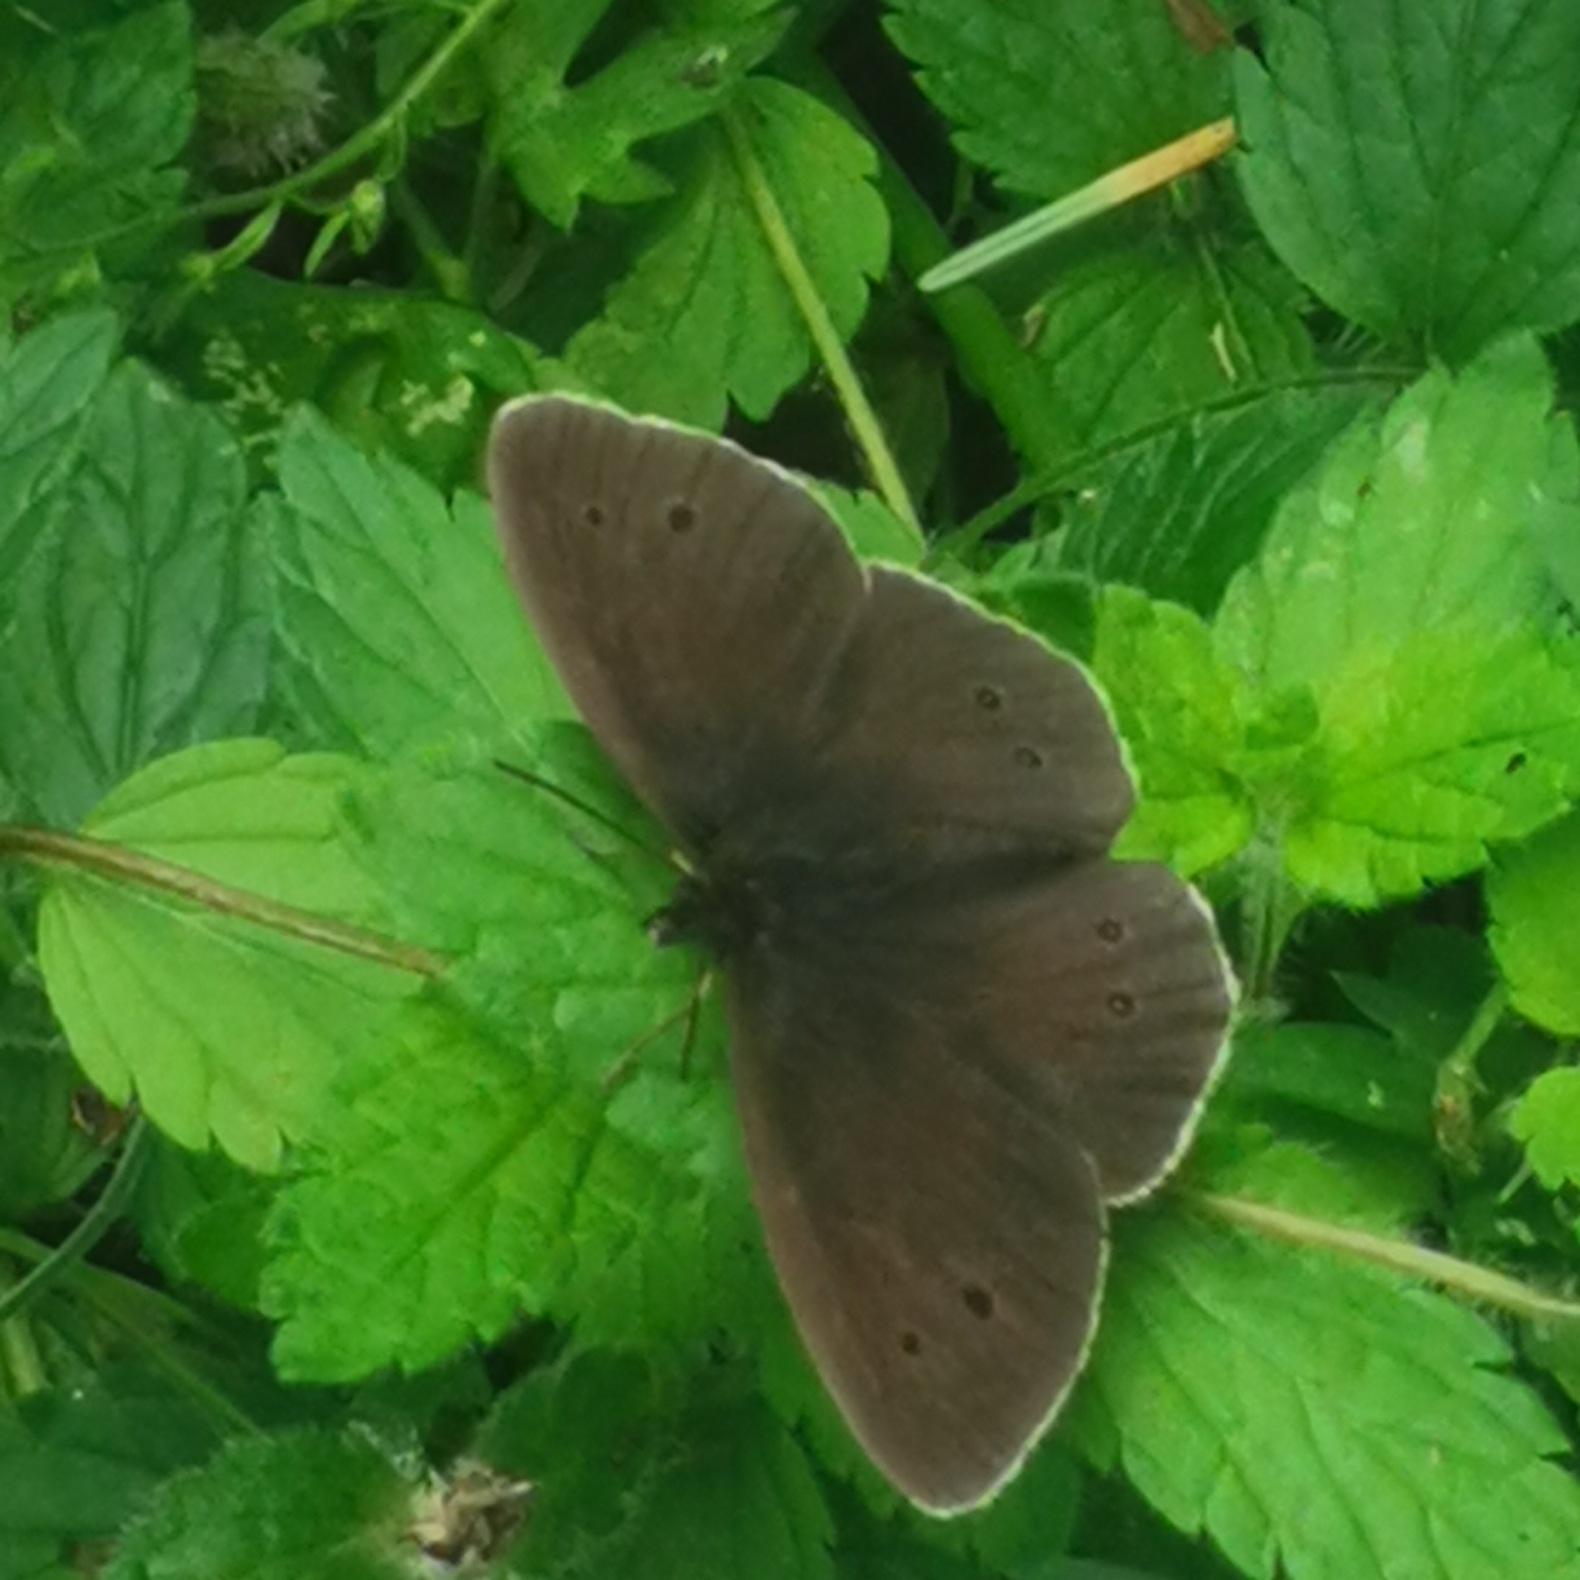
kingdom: Animalia
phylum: Arthropoda
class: Insecta
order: Lepidoptera
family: Nymphalidae
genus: Aphantopus
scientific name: Aphantopus hyperantus
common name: Engrandøje
